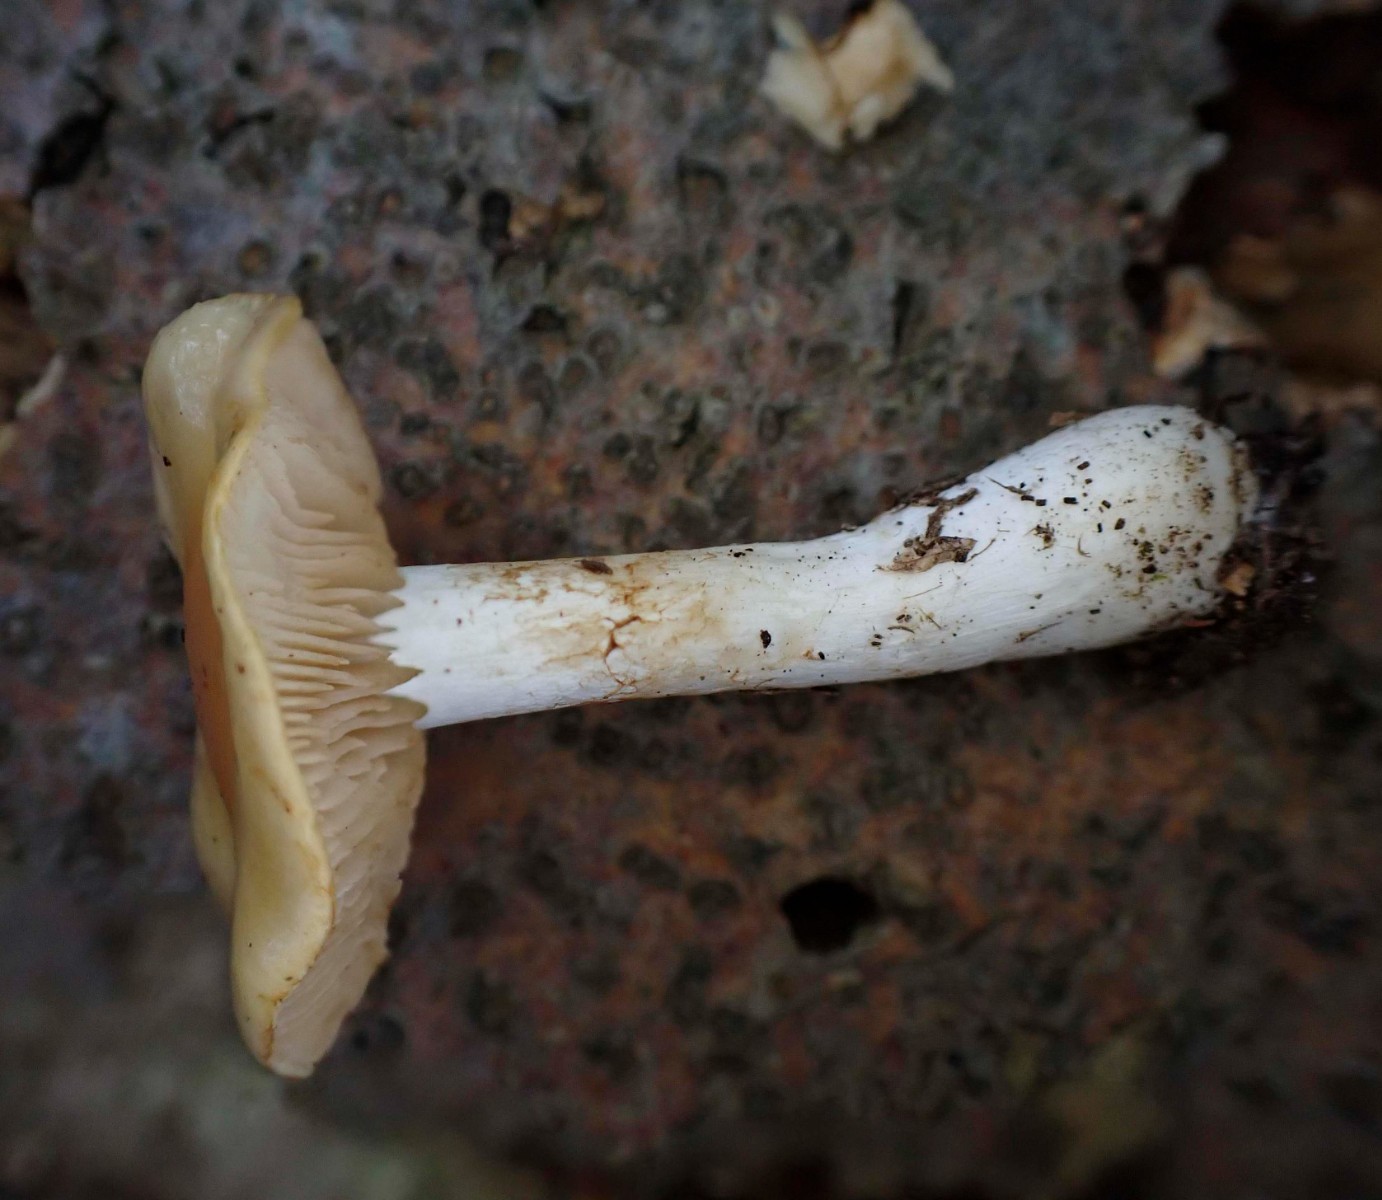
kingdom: Fungi
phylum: Basidiomycota
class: Agaricomycetes
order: Agaricales
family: Cortinariaceae
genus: Thaxterogaster
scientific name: Thaxterogaster emollitus
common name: besk slørhat
